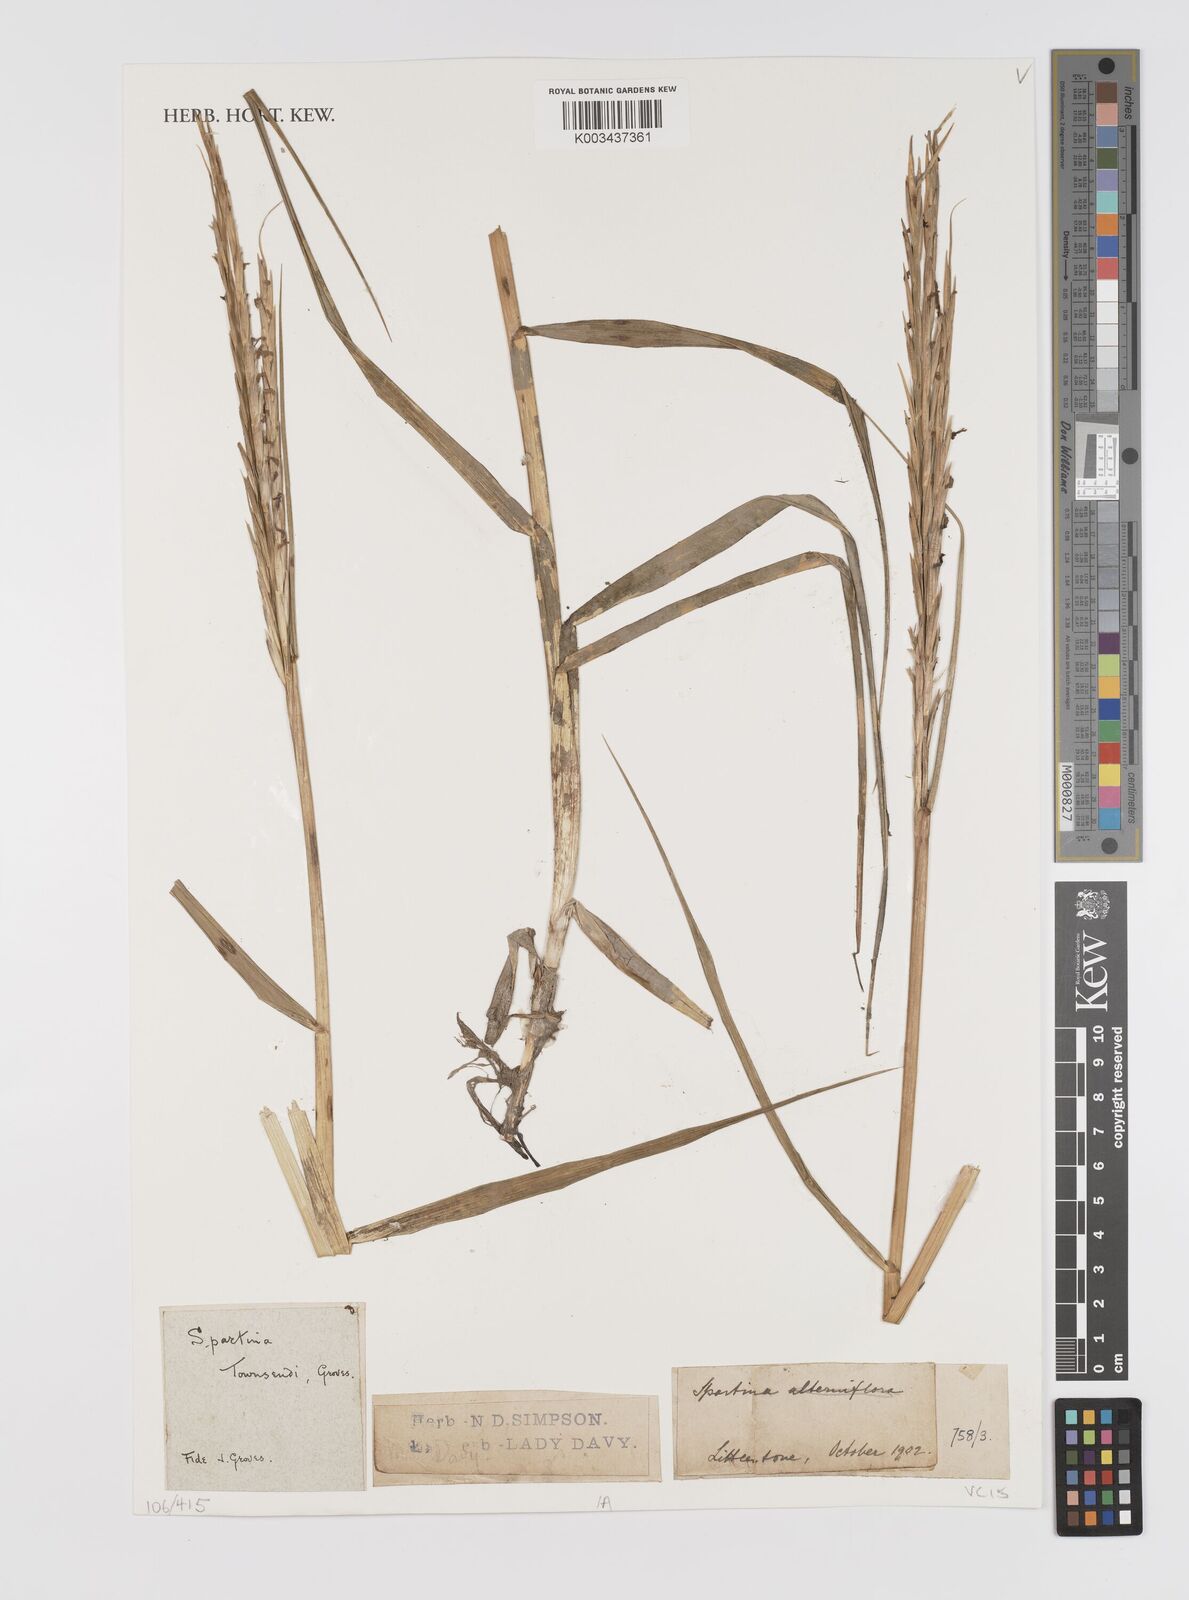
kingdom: Plantae
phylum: Tracheophyta
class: Liliopsida
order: Poales
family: Poaceae
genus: Sporobolus
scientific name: Sporobolus townsendii
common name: Townsend's cordgrass
